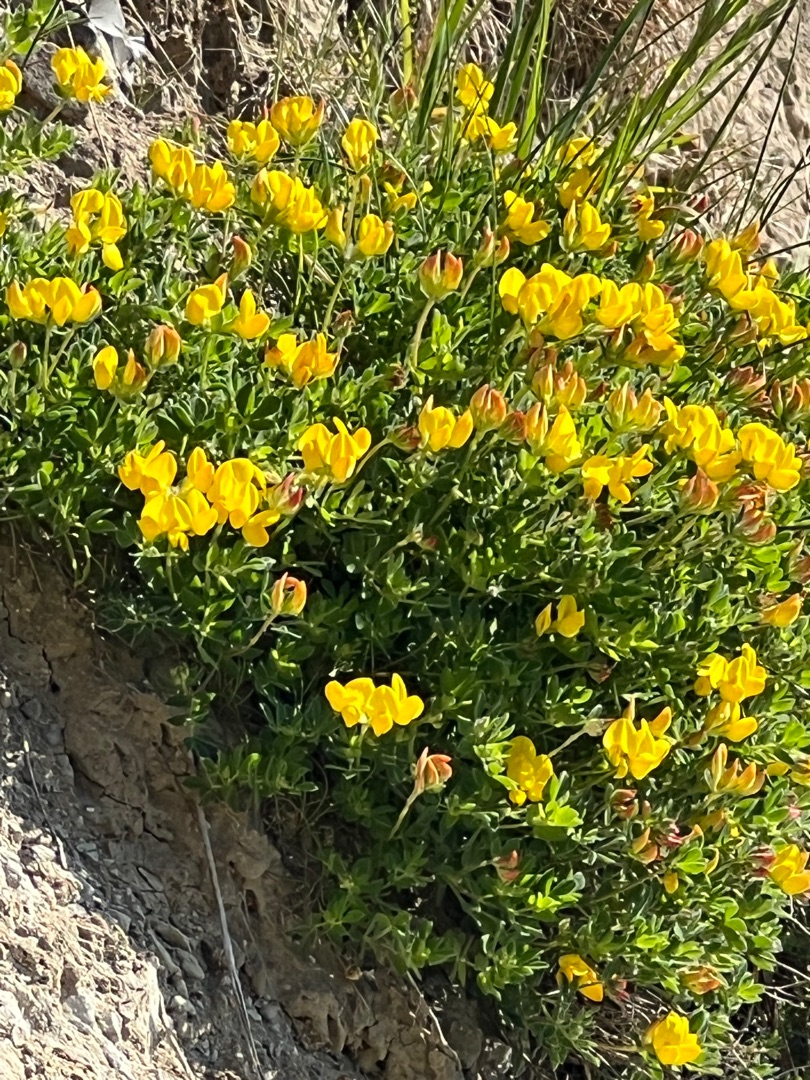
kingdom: Plantae
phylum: Tracheophyta
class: Magnoliopsida
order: Fabales
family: Fabaceae
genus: Lotus
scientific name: Lotus corniculatus
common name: Almindelig kællingetand
